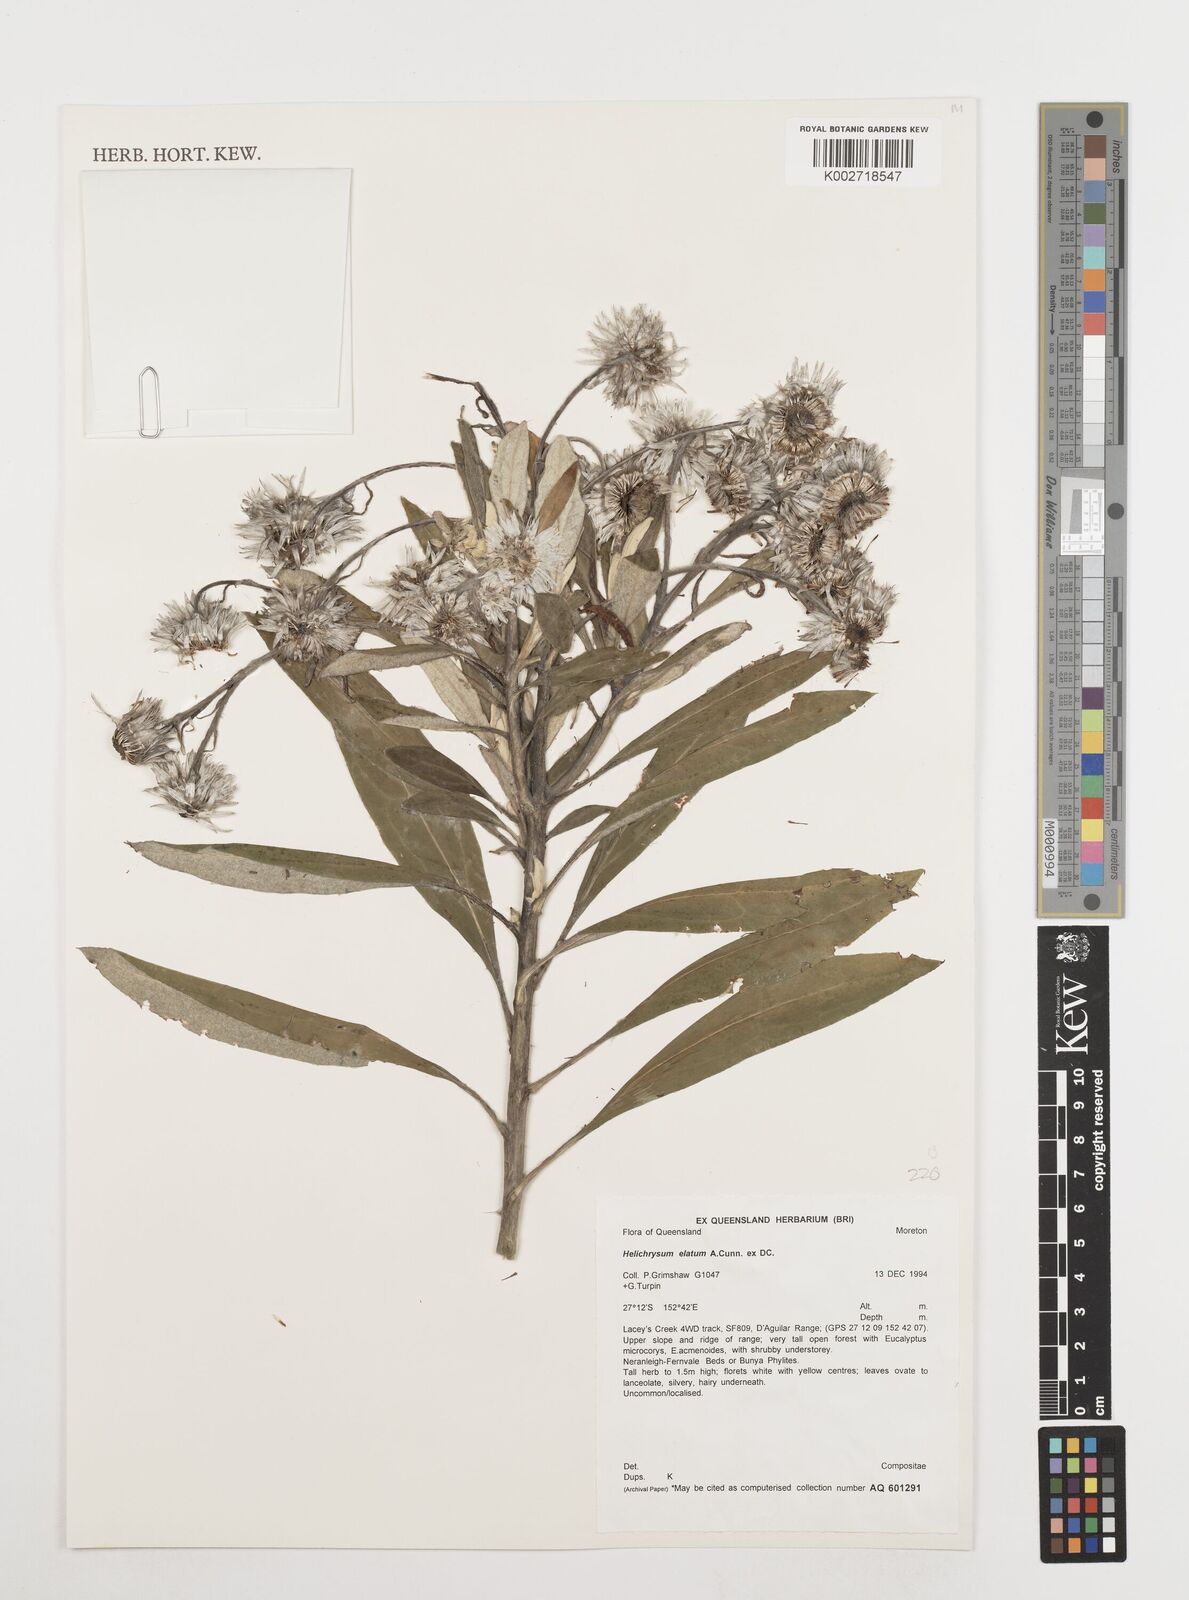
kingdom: Plantae
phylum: Tracheophyta
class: Magnoliopsida
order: Asterales
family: Asteraceae
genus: Leucozoma
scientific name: Leucozoma elatum
